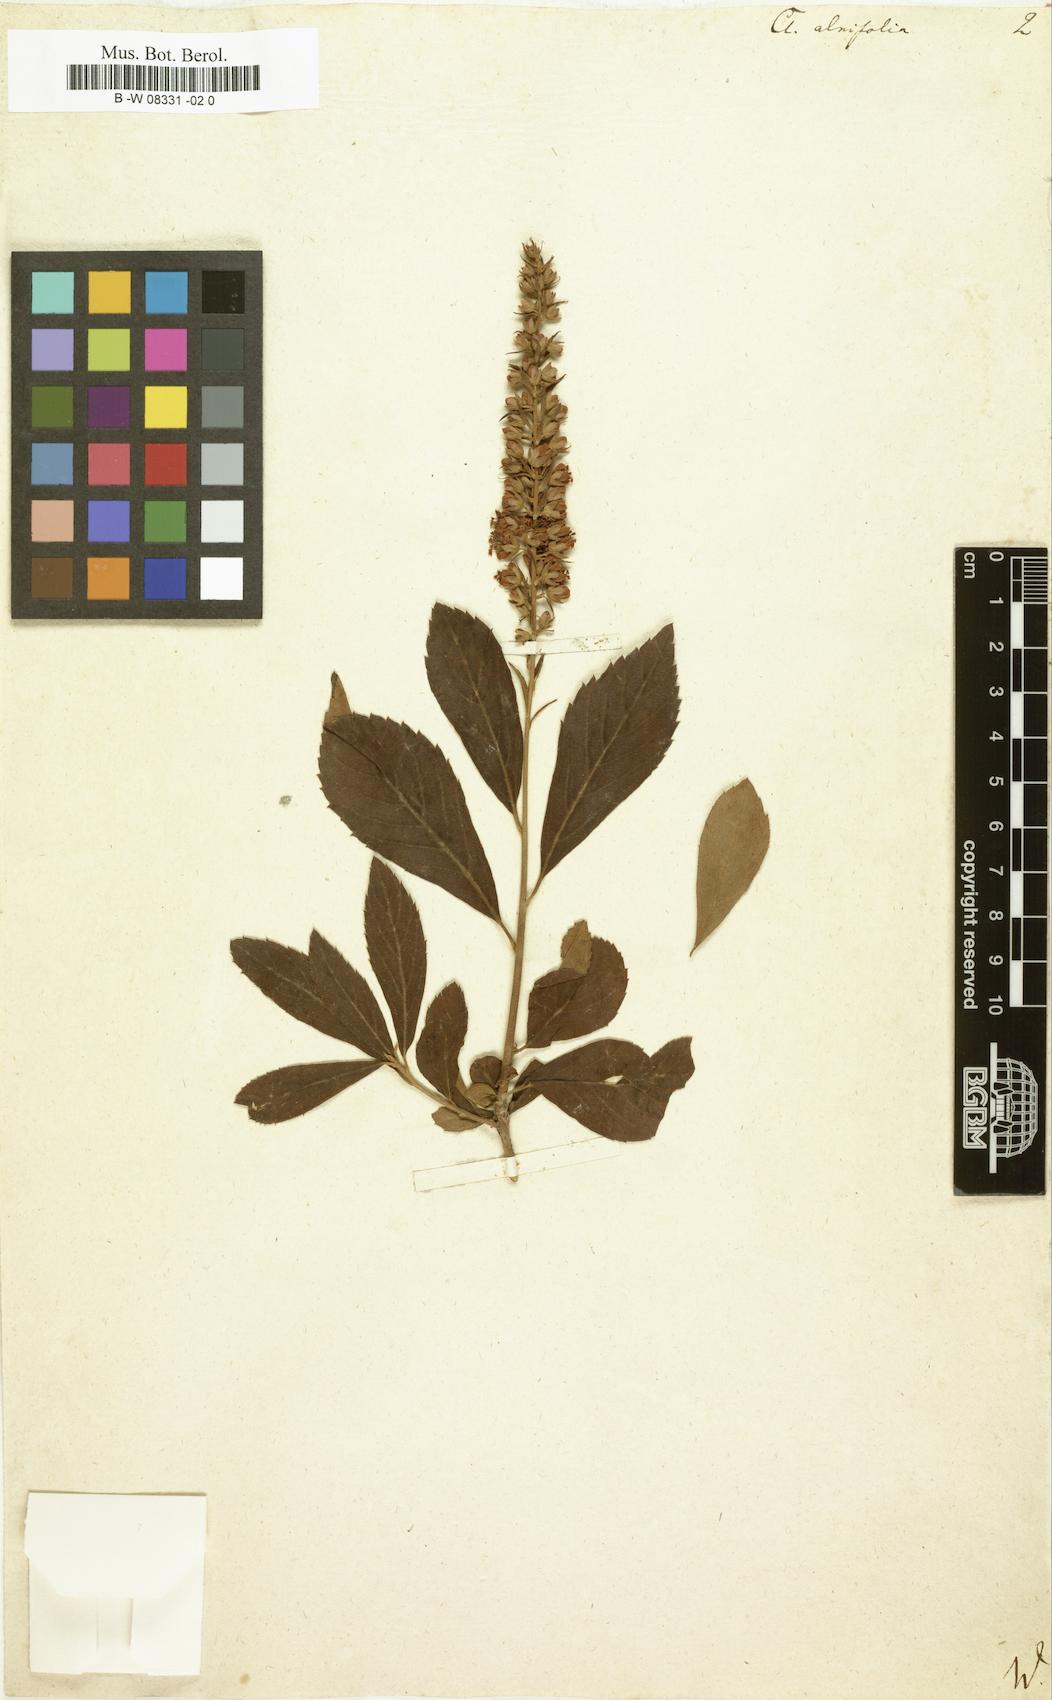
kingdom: Plantae
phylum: Tracheophyta
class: Magnoliopsida
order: Ericales
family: Clethraceae
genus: Clethra
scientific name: Clethra alnifolia
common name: Sweet pepperbush
